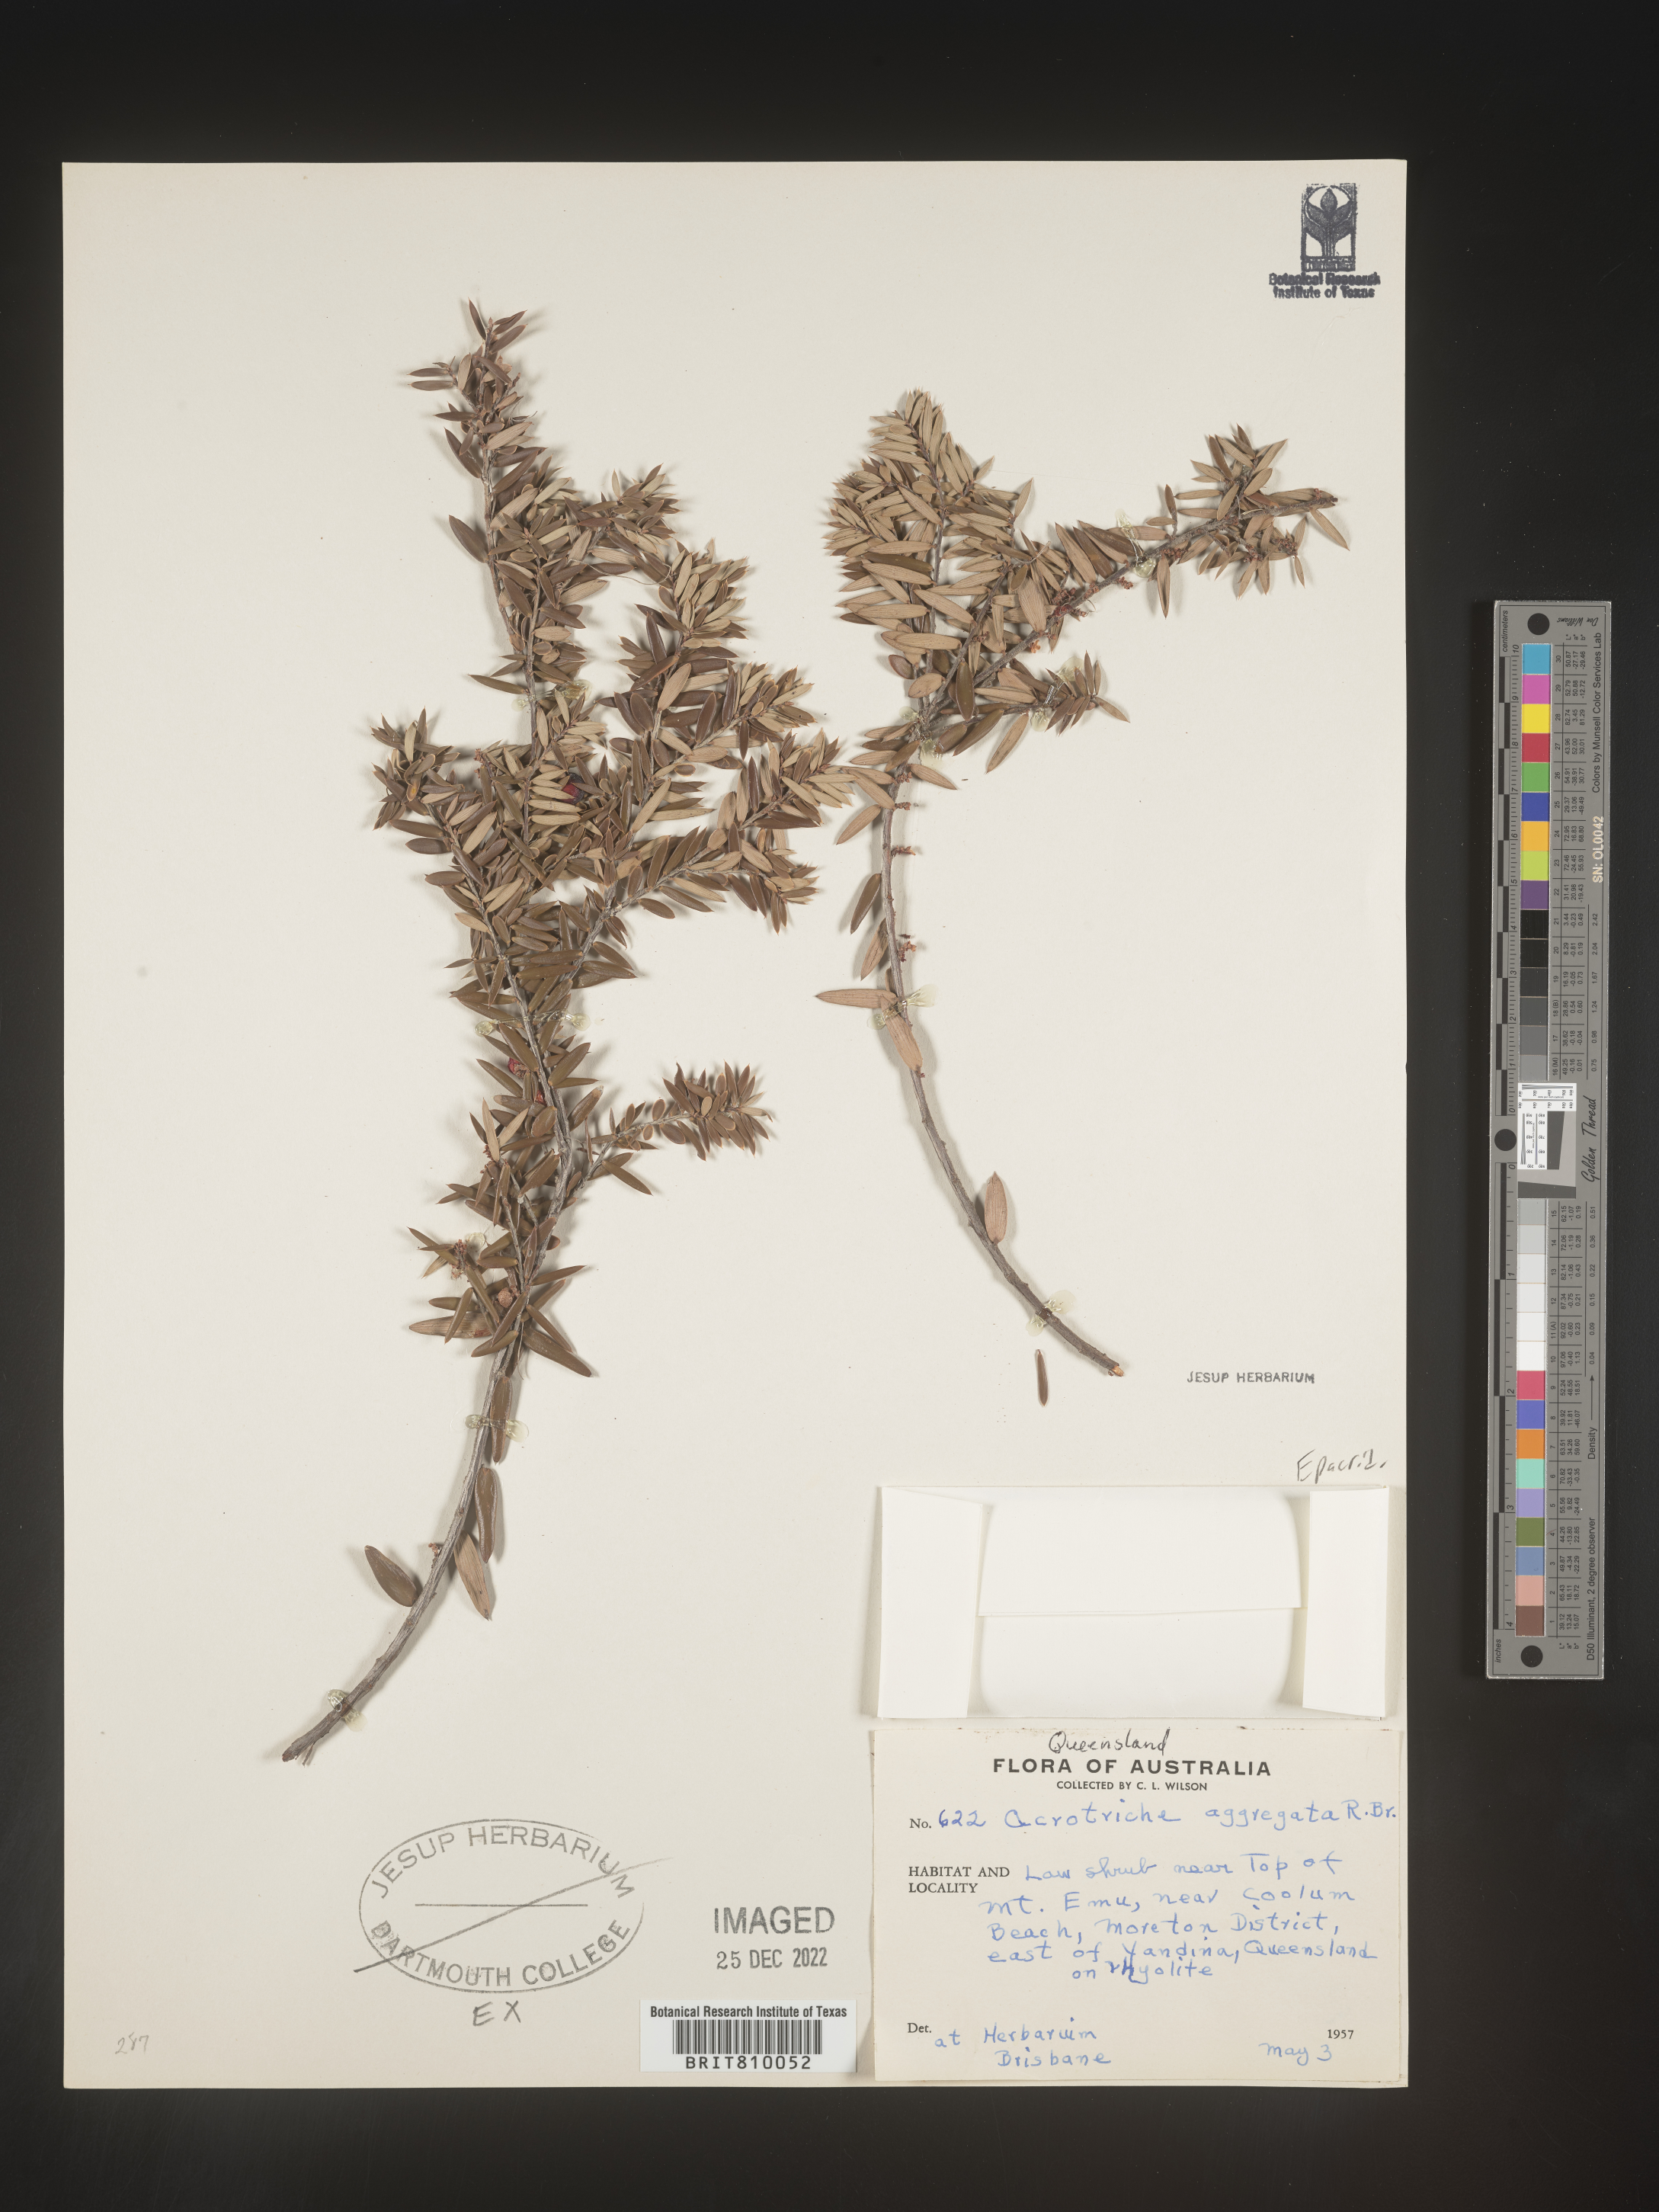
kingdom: Plantae
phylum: Tracheophyta
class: Magnoliopsida
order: Ericales
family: Ericaceae
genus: Acrotriche
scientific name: Acrotriche
